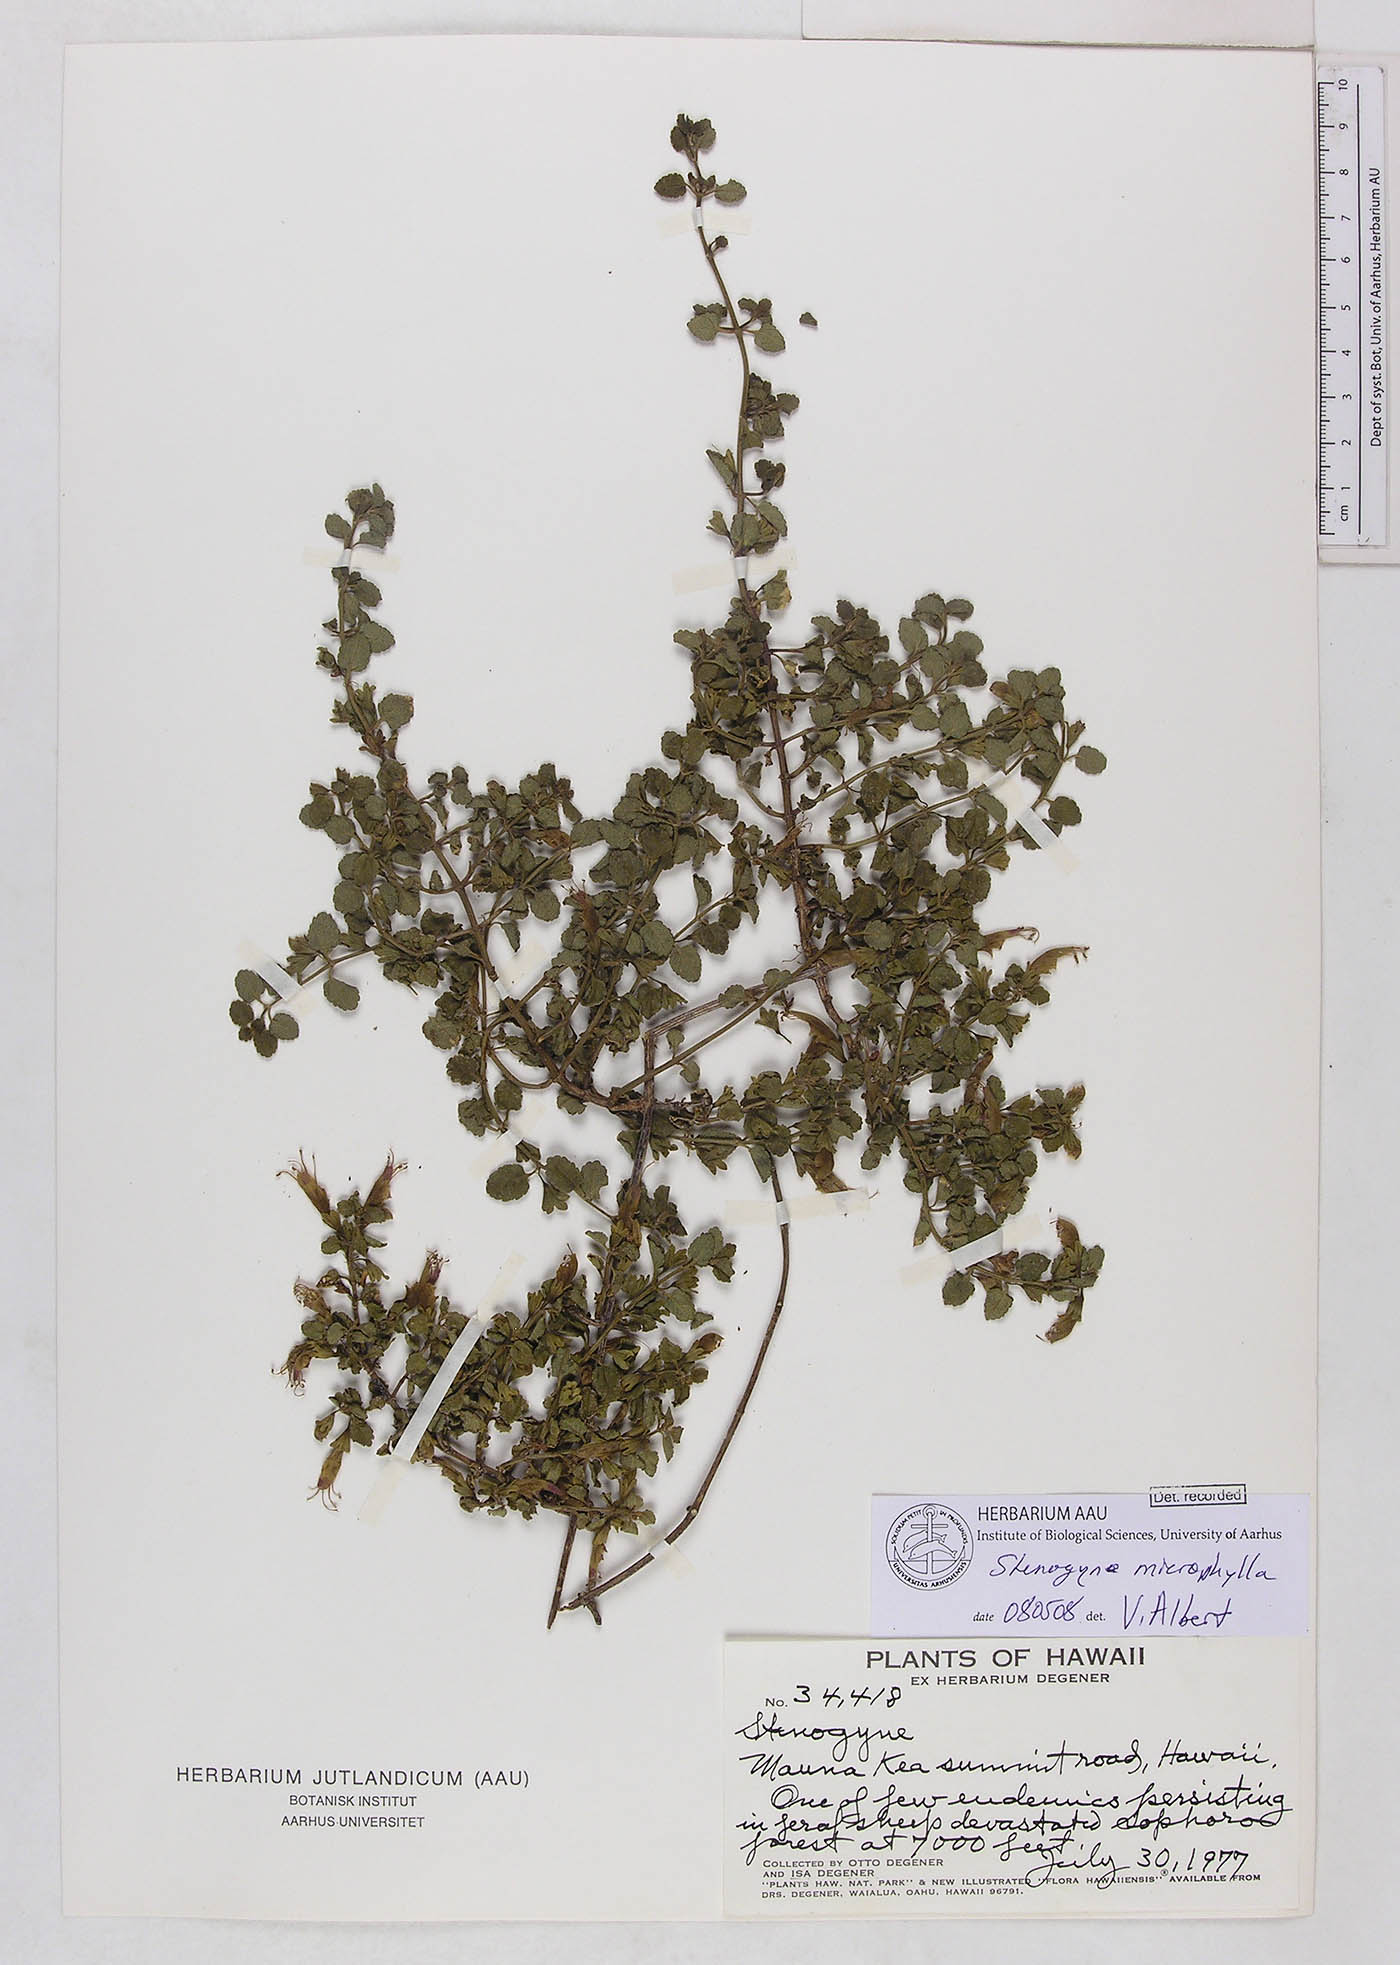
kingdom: Plantae
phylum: Tracheophyta
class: Magnoliopsida
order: Lamiales
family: Lamiaceae
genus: Stenogyne
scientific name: Stenogyne microphylla
